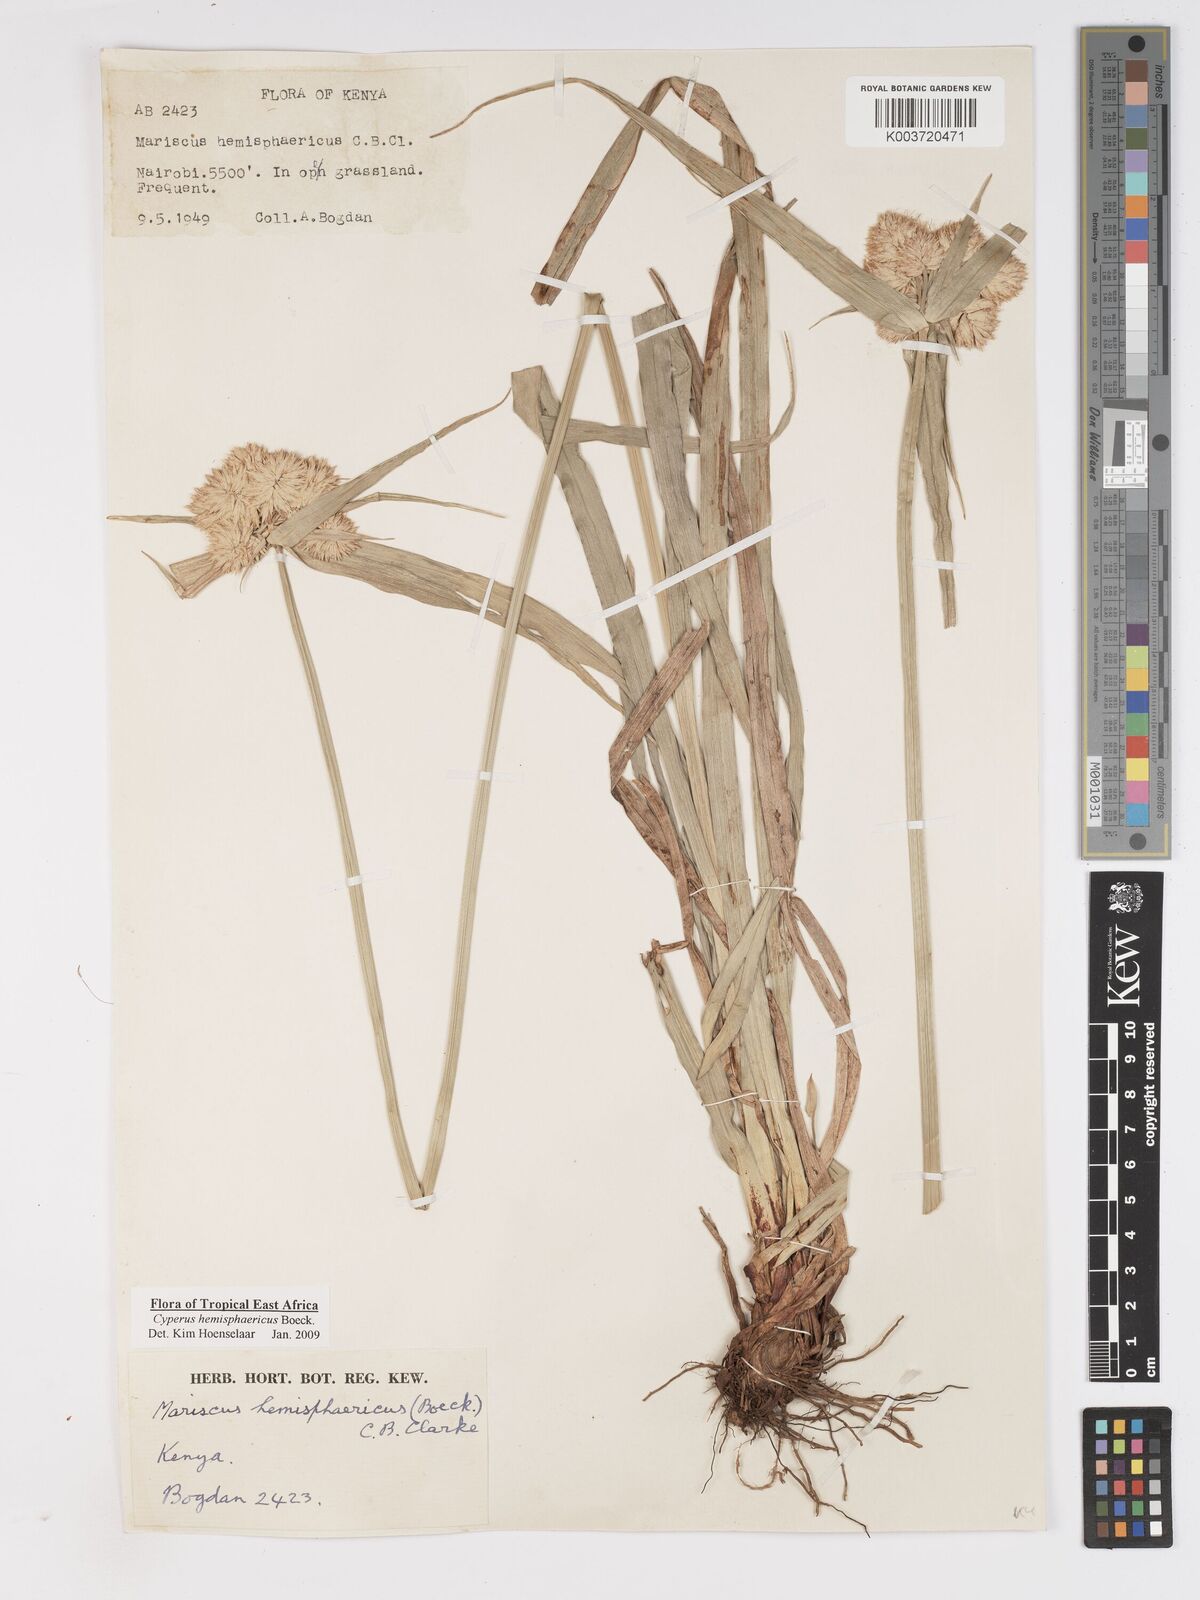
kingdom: Plantae
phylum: Tracheophyta
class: Liliopsida
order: Poales
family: Cyperaceae
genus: Cyperus
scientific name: Cyperus hemisphaericus
